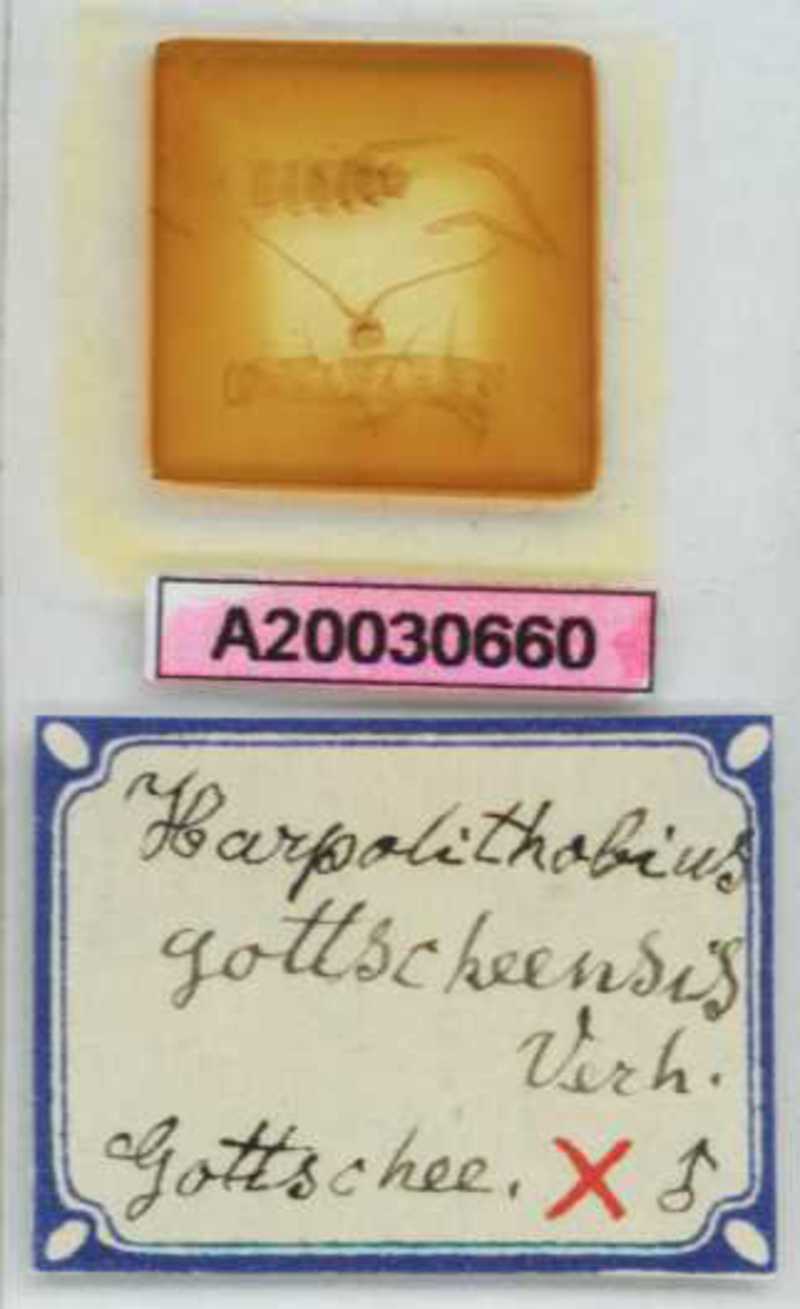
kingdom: Animalia
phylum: Arthropoda
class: Chilopoda
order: Lithobiomorpha
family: Lithobiidae
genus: Harpolithobius
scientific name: Harpolithobius gottscheensis
